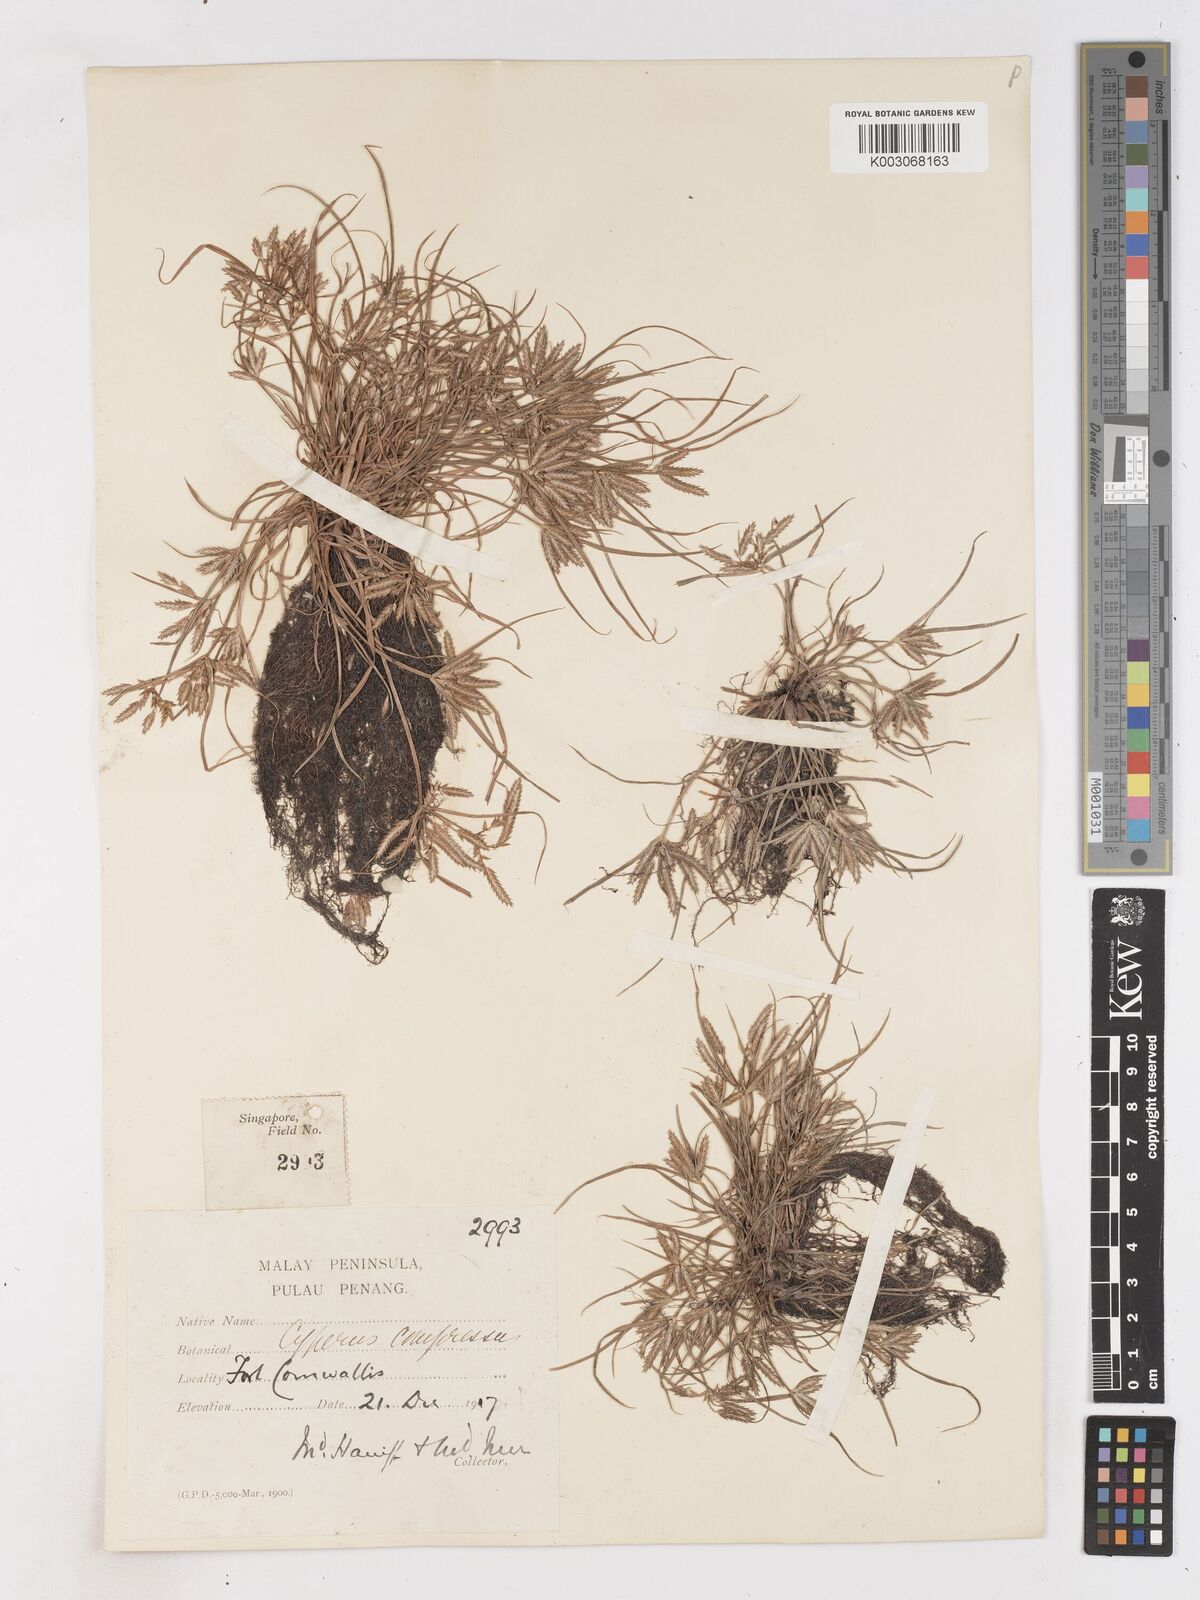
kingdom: Plantae
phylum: Tracheophyta
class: Liliopsida
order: Poales
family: Cyperaceae
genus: Cyperus
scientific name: Cyperus compressus
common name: Poorland flatsedge
